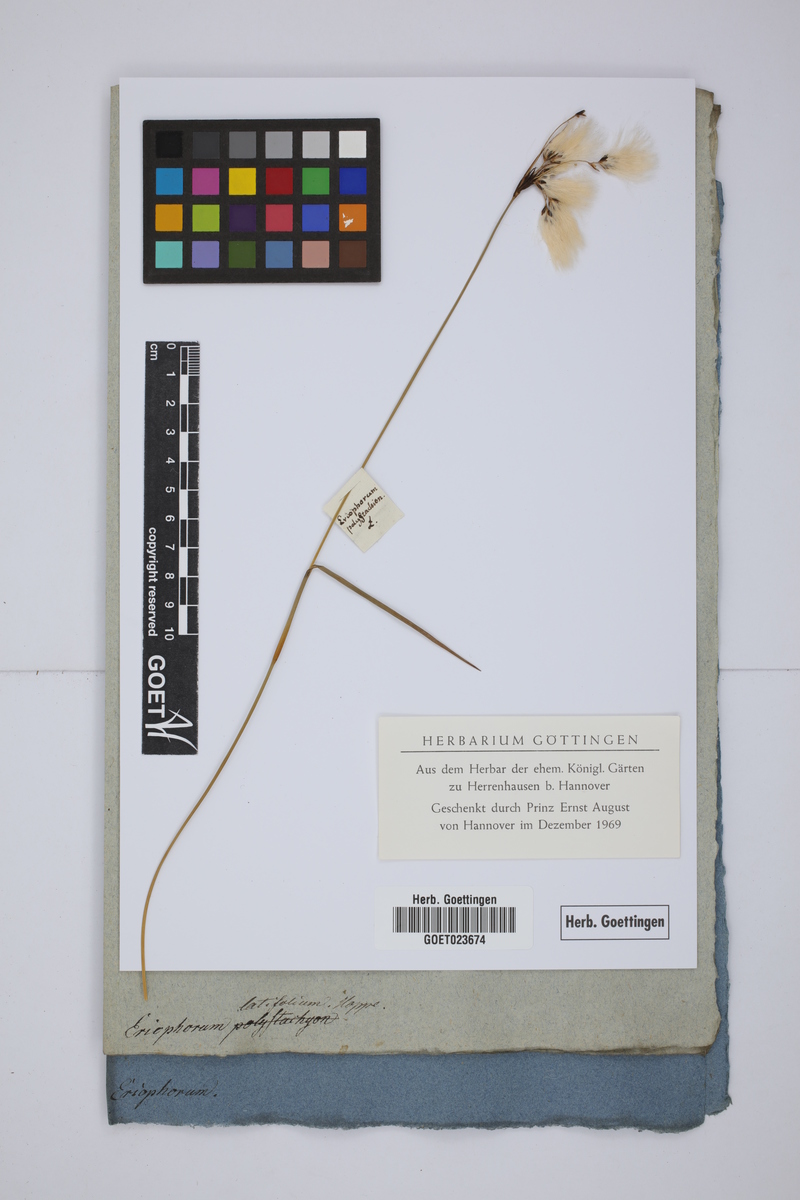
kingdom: Plantae
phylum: Tracheophyta
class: Liliopsida
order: Poales
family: Cyperaceae
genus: Eriophorum
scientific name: Eriophorum angustifolium
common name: Common cottongrass
